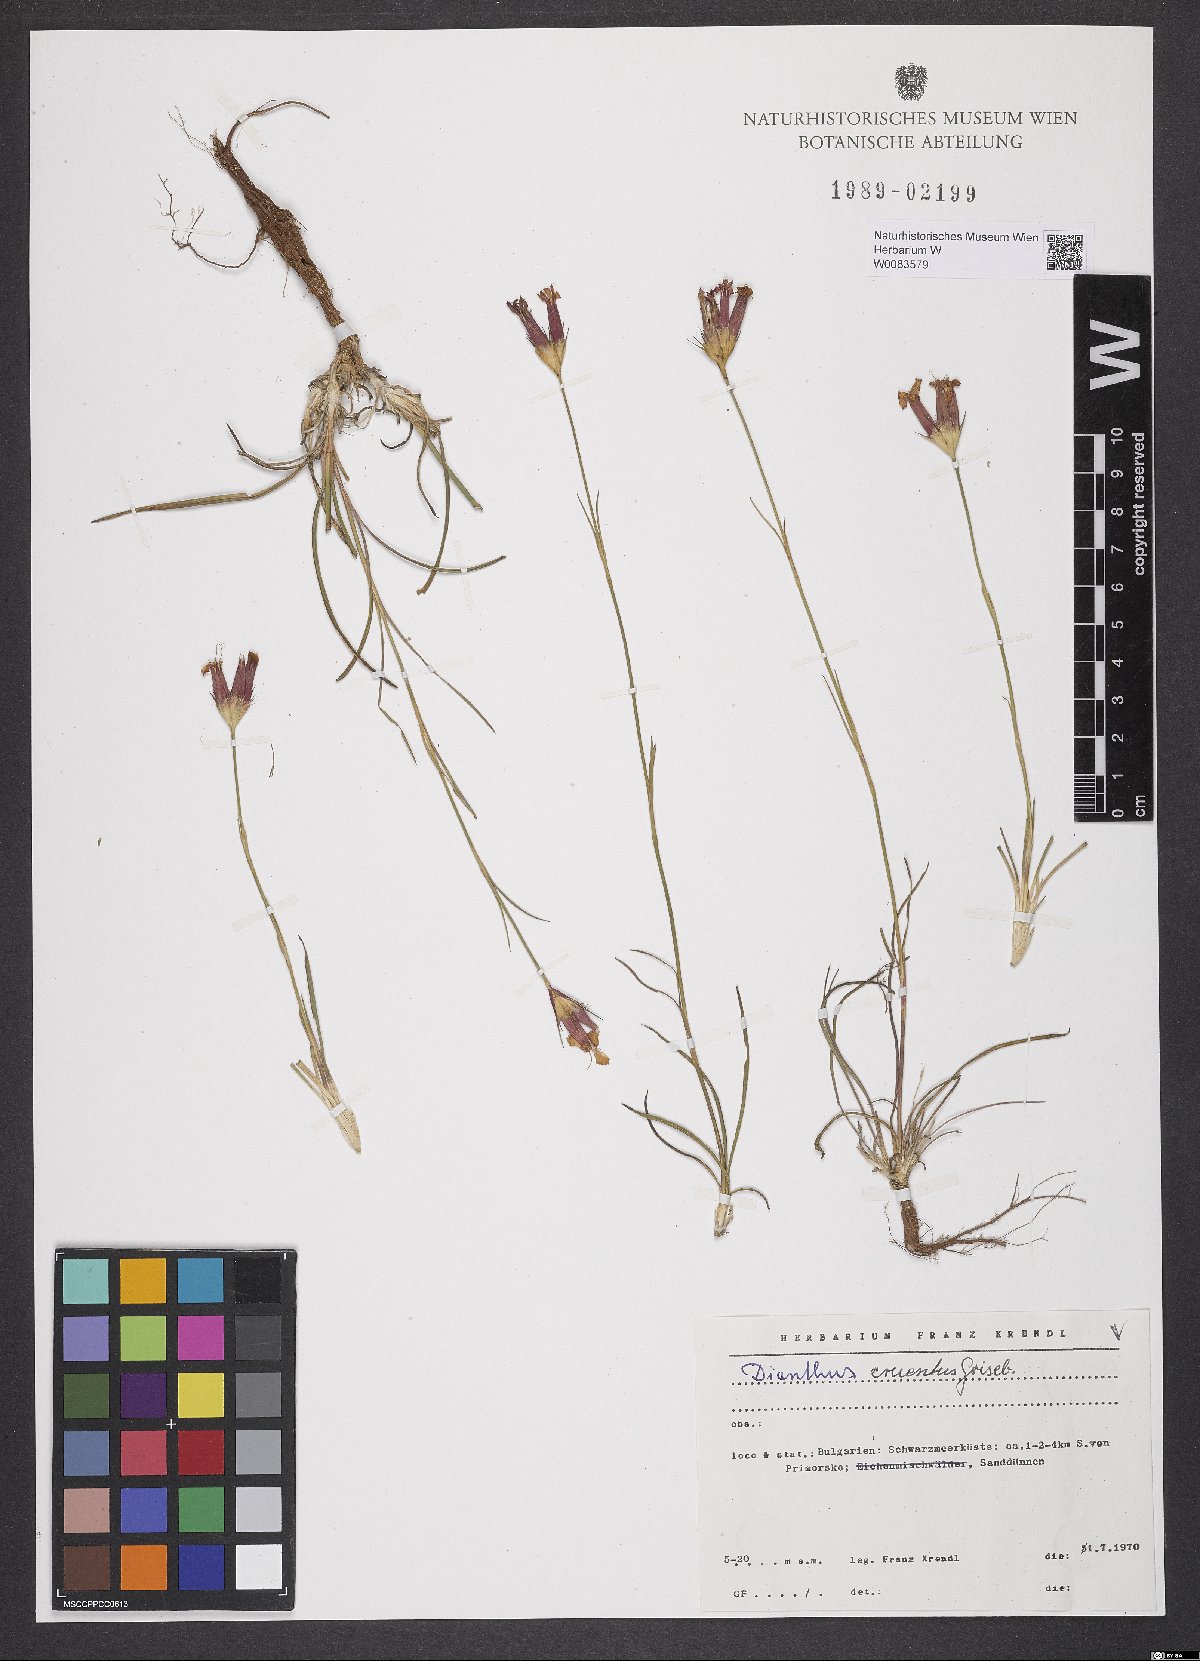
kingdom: Plantae
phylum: Tracheophyta
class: Magnoliopsida
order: Caryophyllales
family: Caryophyllaceae
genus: Dianthus
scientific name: Dianthus cruentus
